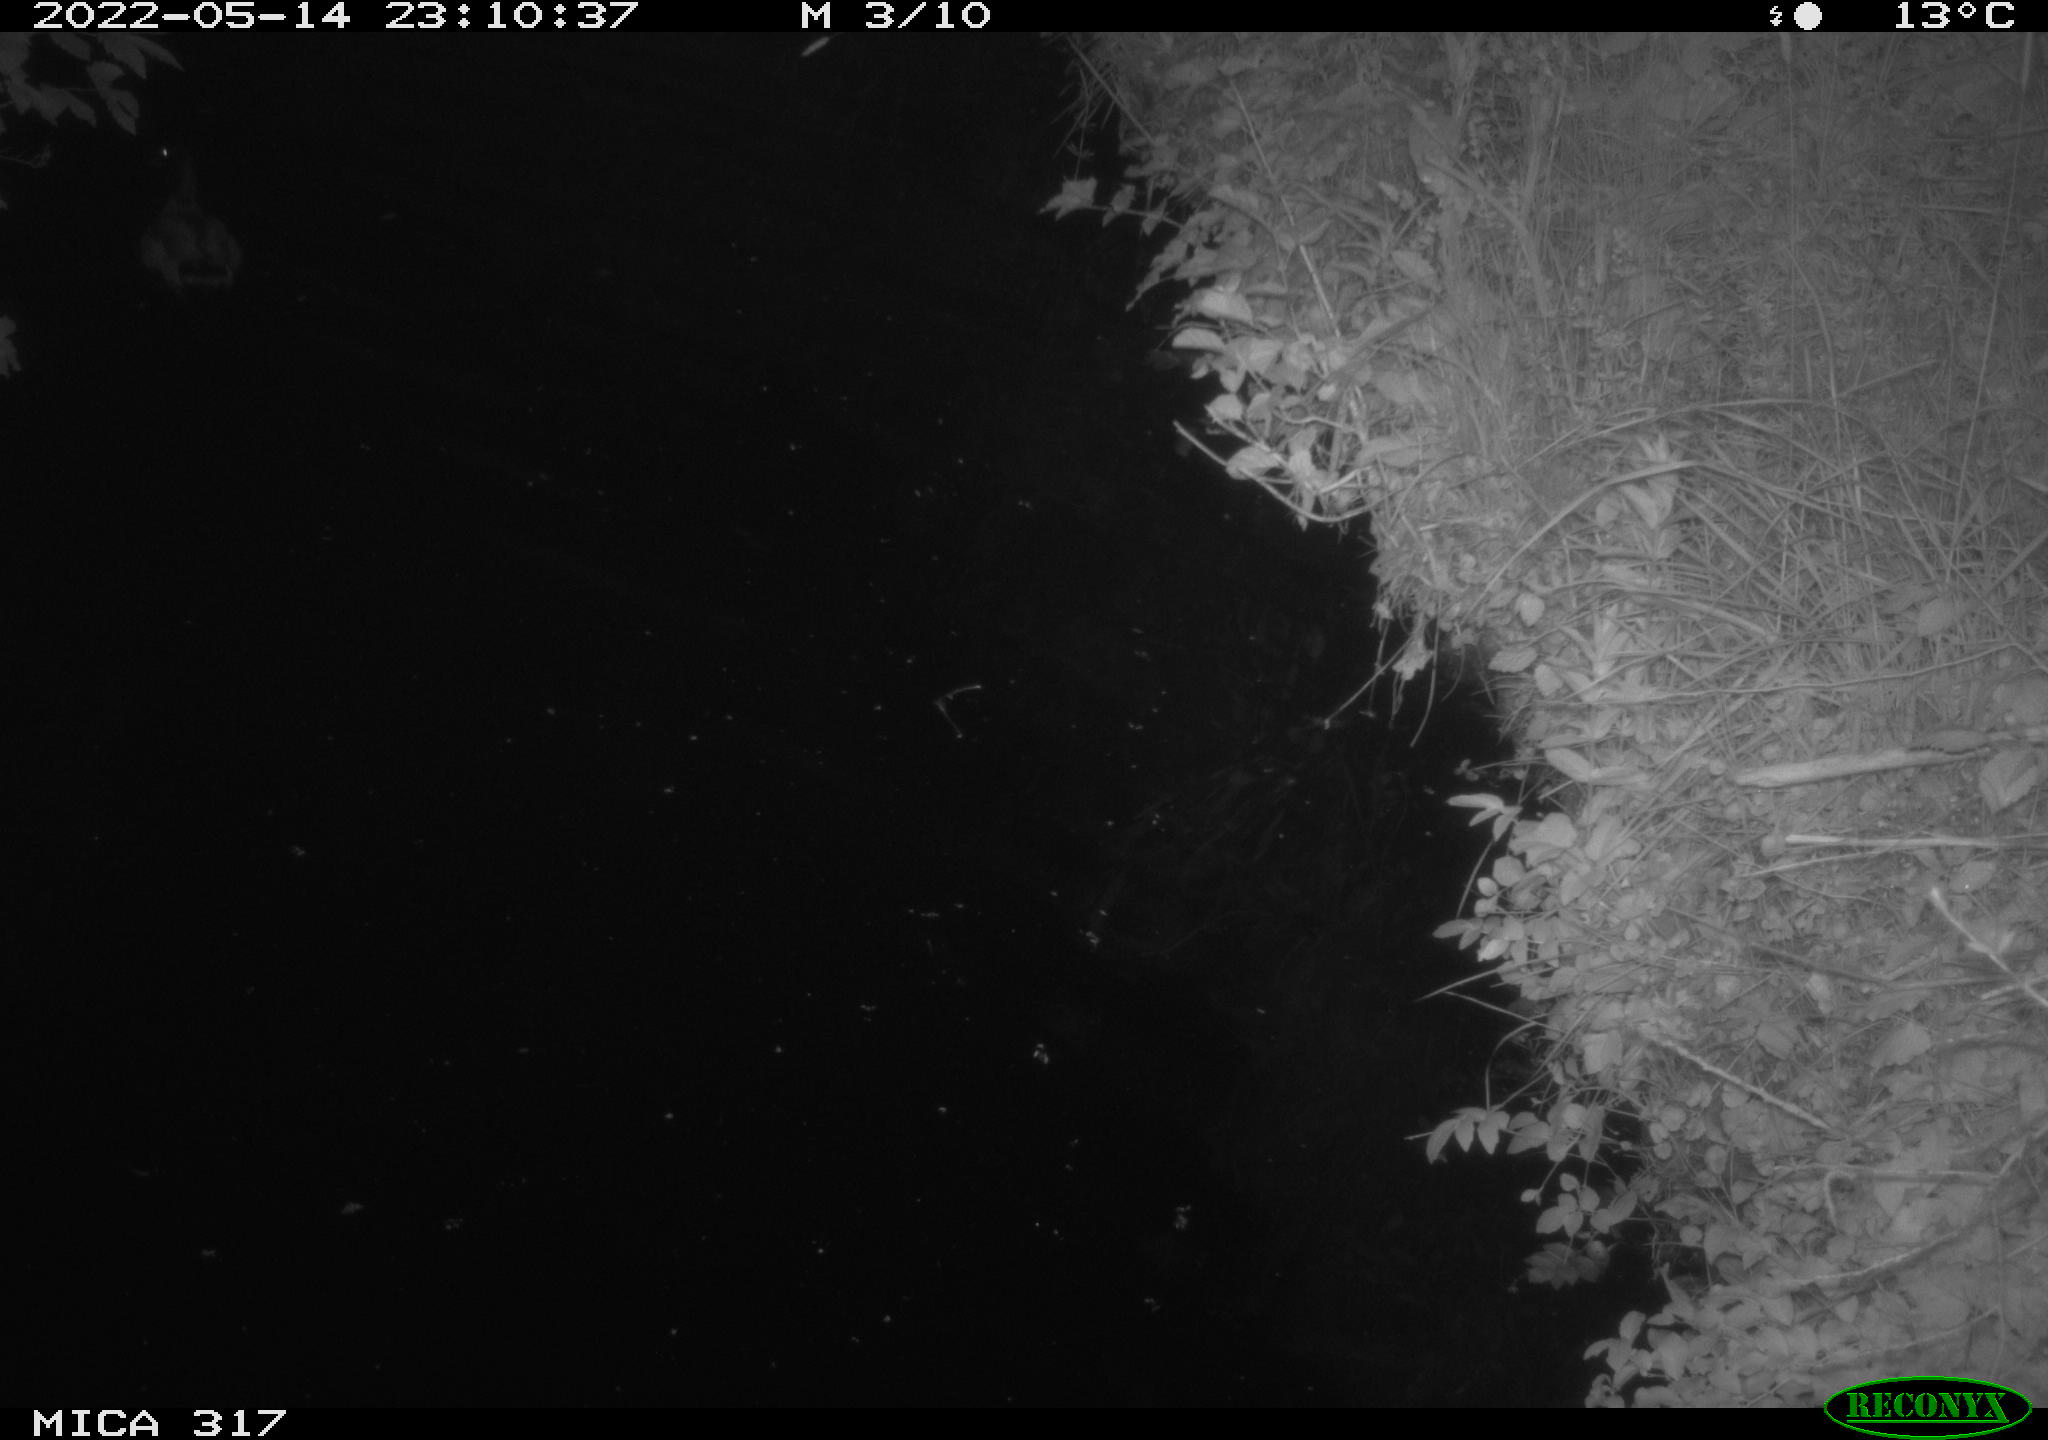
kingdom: Animalia
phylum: Chordata
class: Aves
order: Anseriformes
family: Anatidae
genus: Anas
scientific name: Anas
